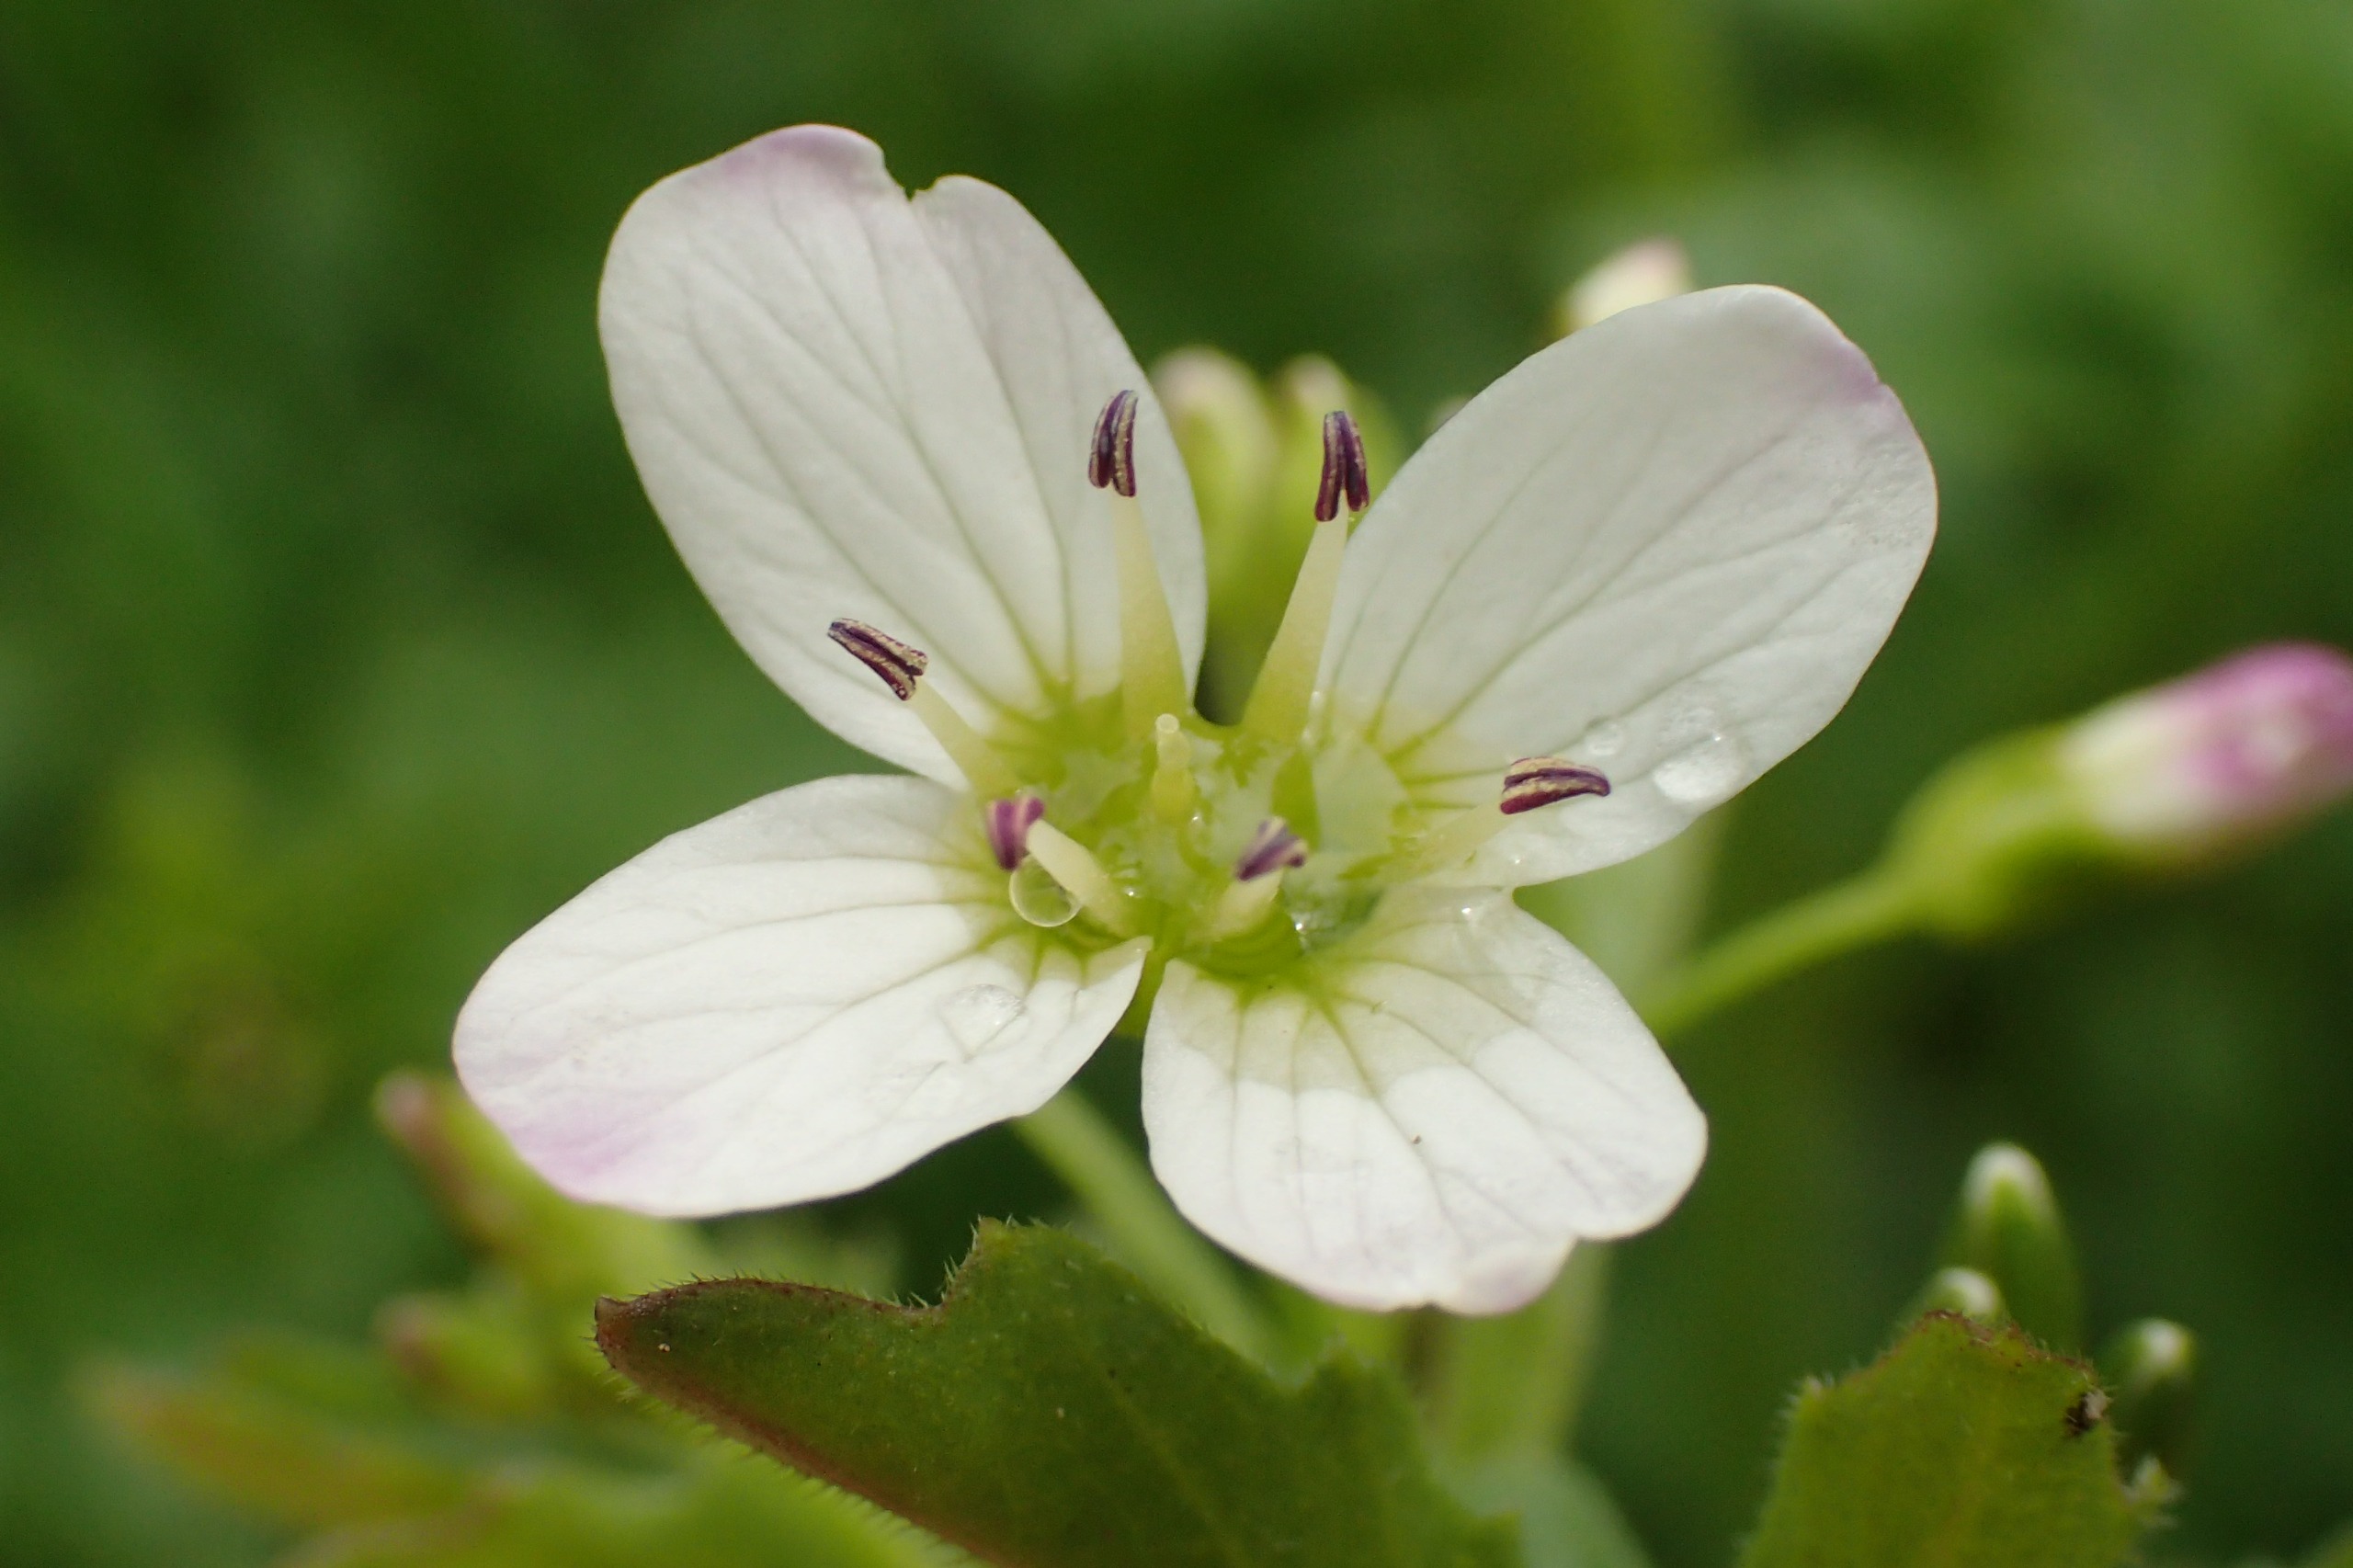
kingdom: Plantae
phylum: Tracheophyta
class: Magnoliopsida
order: Brassicales
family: Brassicaceae
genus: Cardamine
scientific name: Cardamine amara
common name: Vandkarse
